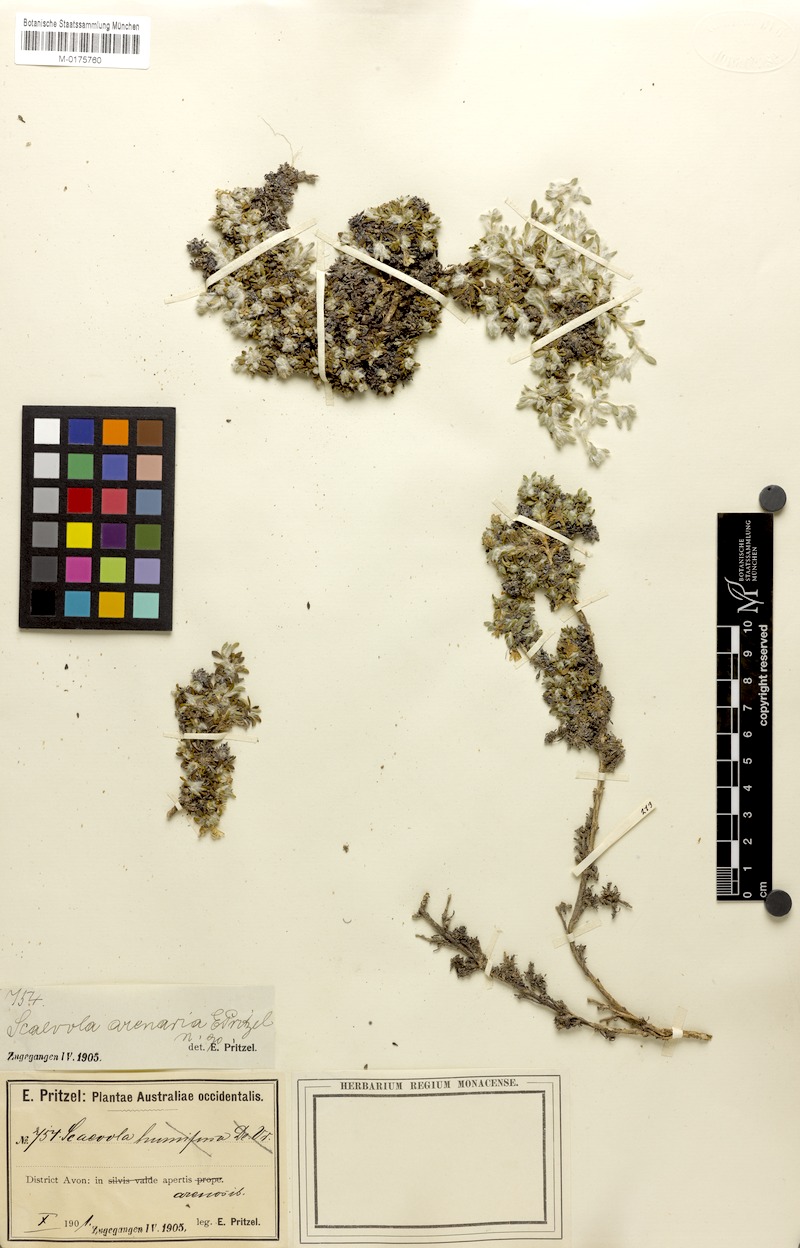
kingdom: Plantae
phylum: Tracheophyta
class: Magnoliopsida
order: Asterales
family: Goodeniaceae
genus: Scaevola
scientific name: Scaevola humifusa
